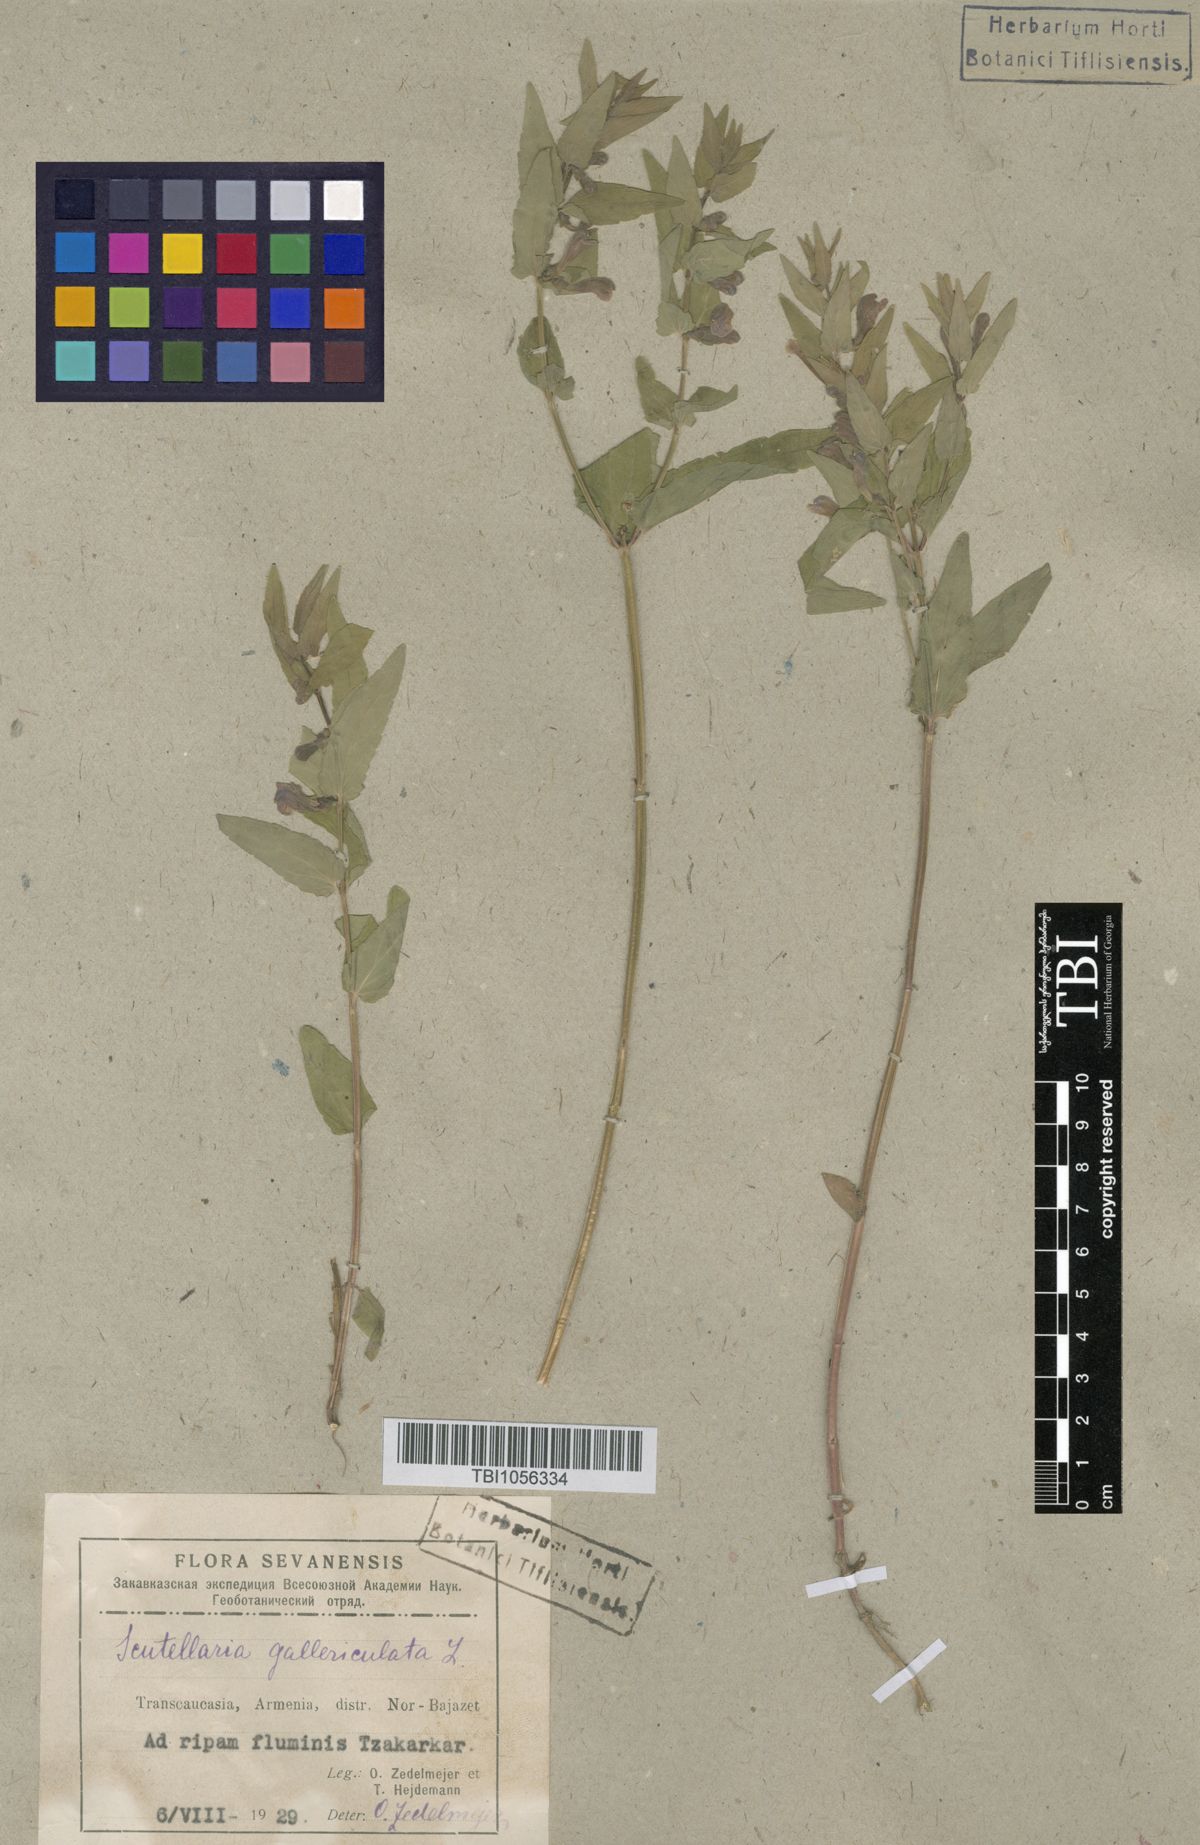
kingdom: Plantae
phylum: Tracheophyta
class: Magnoliopsida
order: Lamiales
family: Lamiaceae
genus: Scutellaria
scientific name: Scutellaria galericulata
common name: Skullcap
